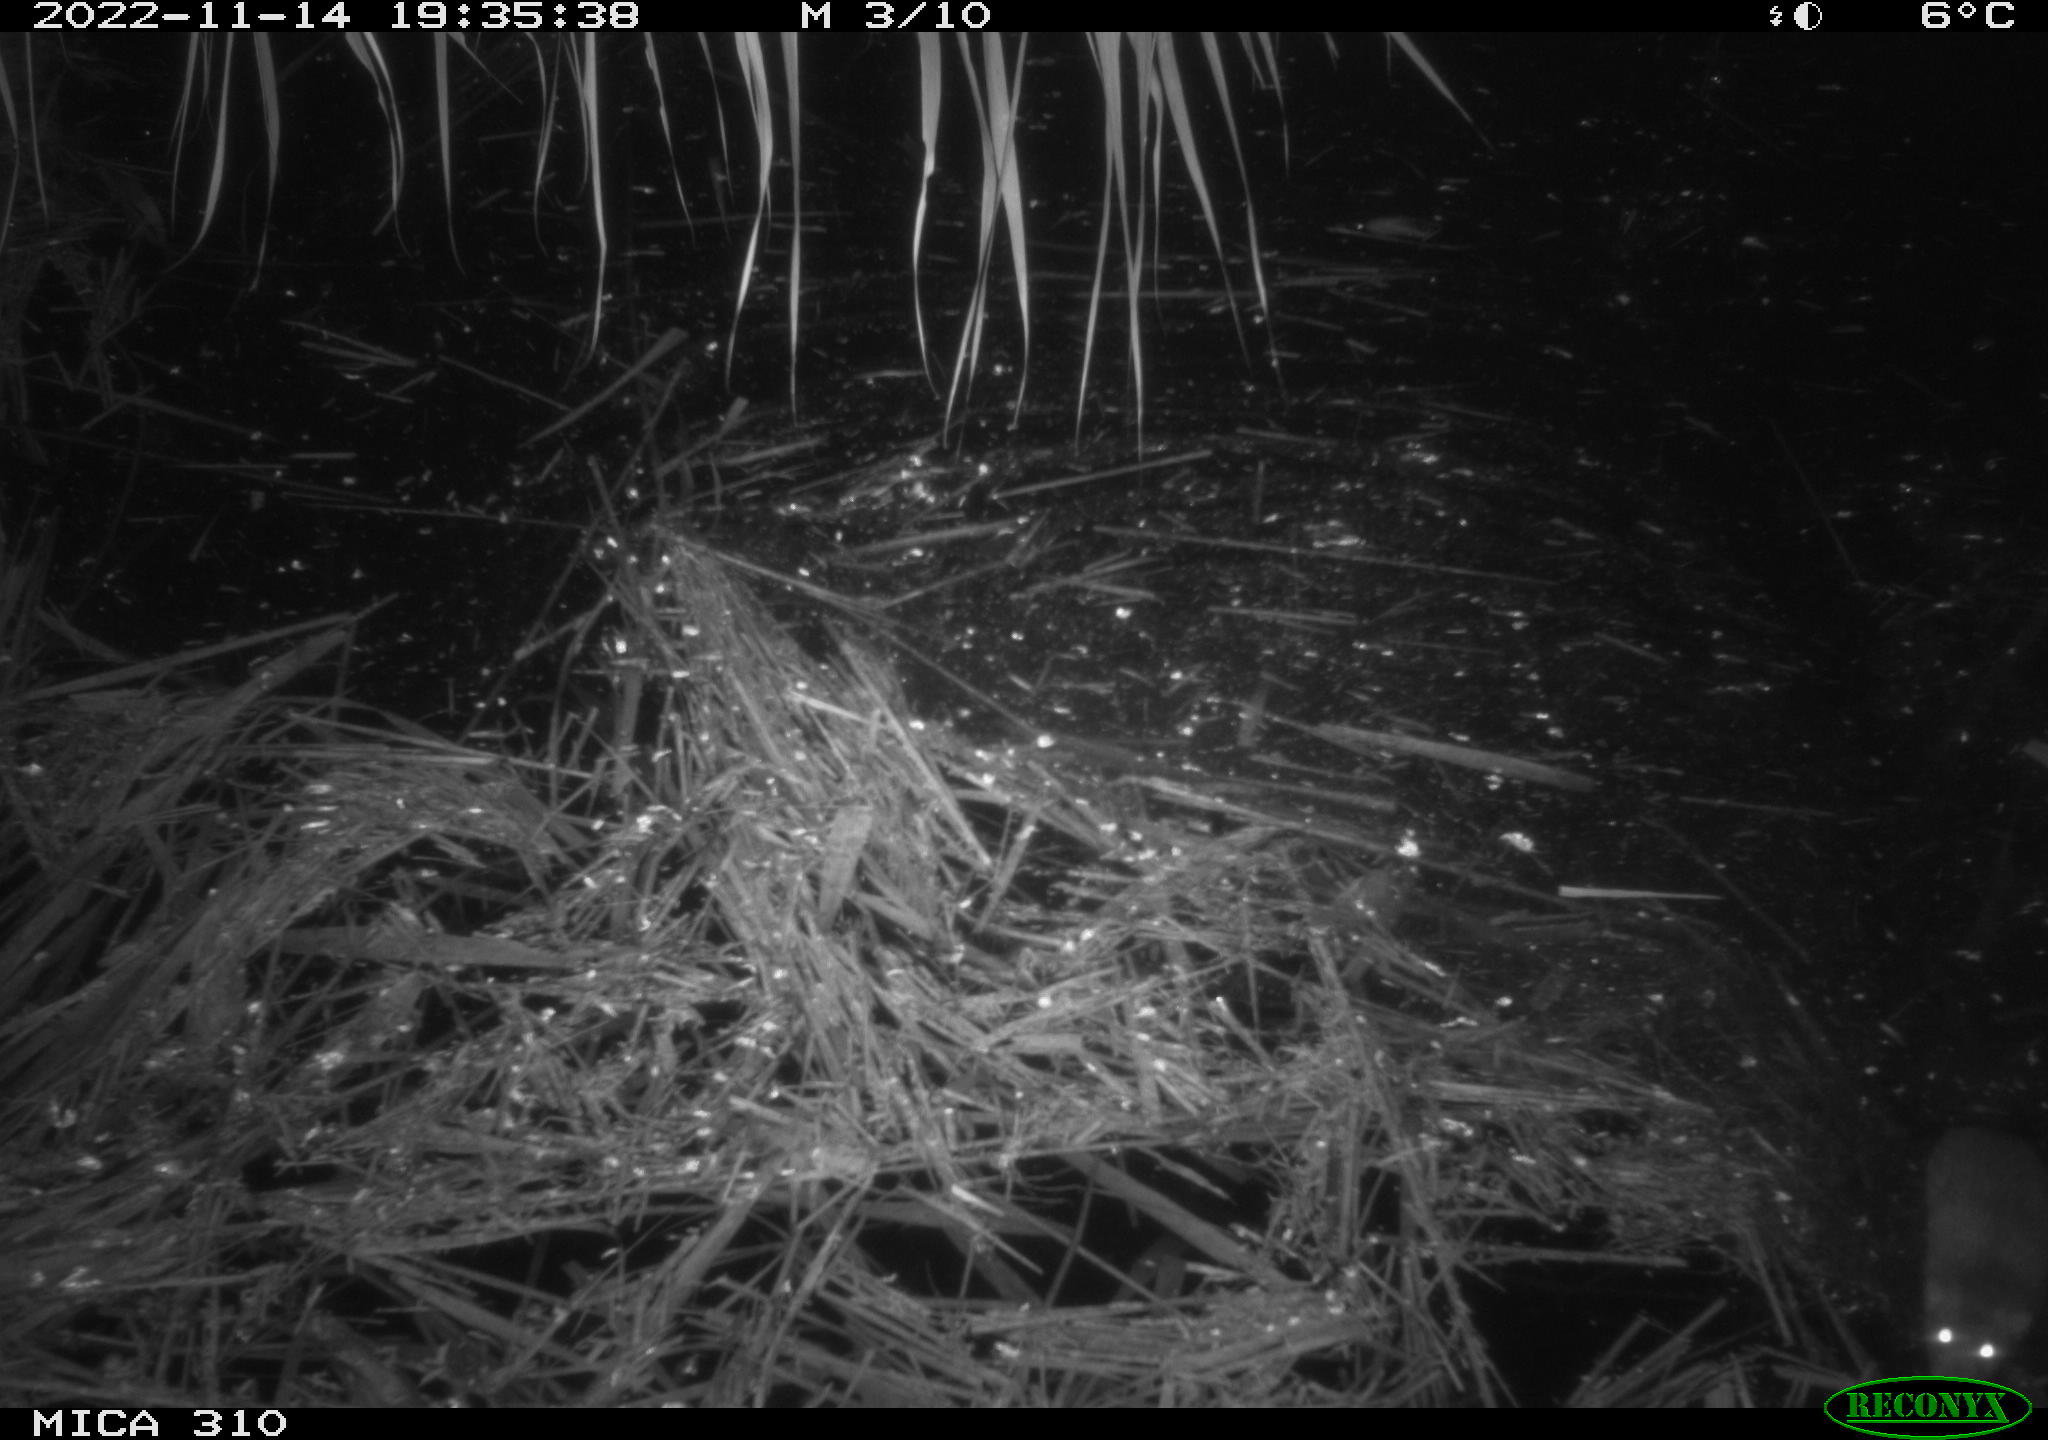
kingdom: Animalia
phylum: Chordata
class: Mammalia
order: Rodentia
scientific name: Rodentia
